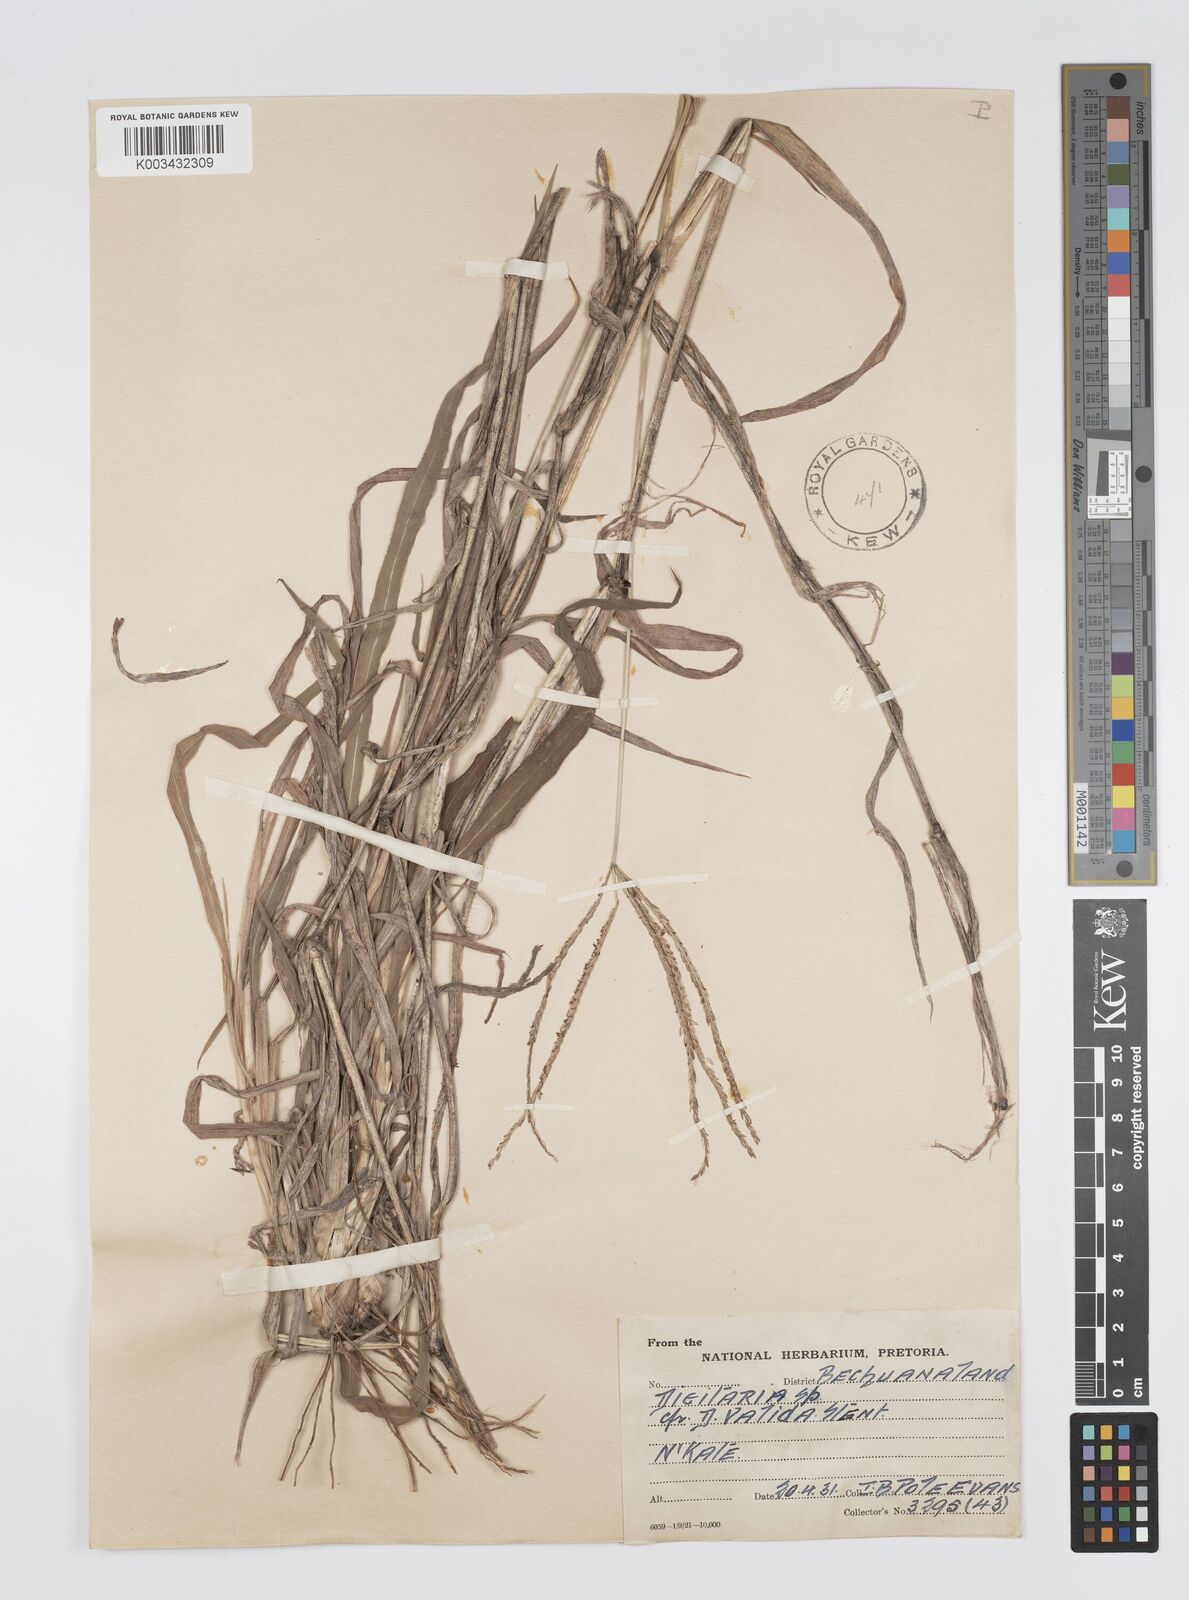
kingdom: Plantae
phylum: Tracheophyta
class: Liliopsida
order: Poales
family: Poaceae
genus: Digitaria
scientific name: Digitaria milanjiana
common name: Madagascar crabgrass
